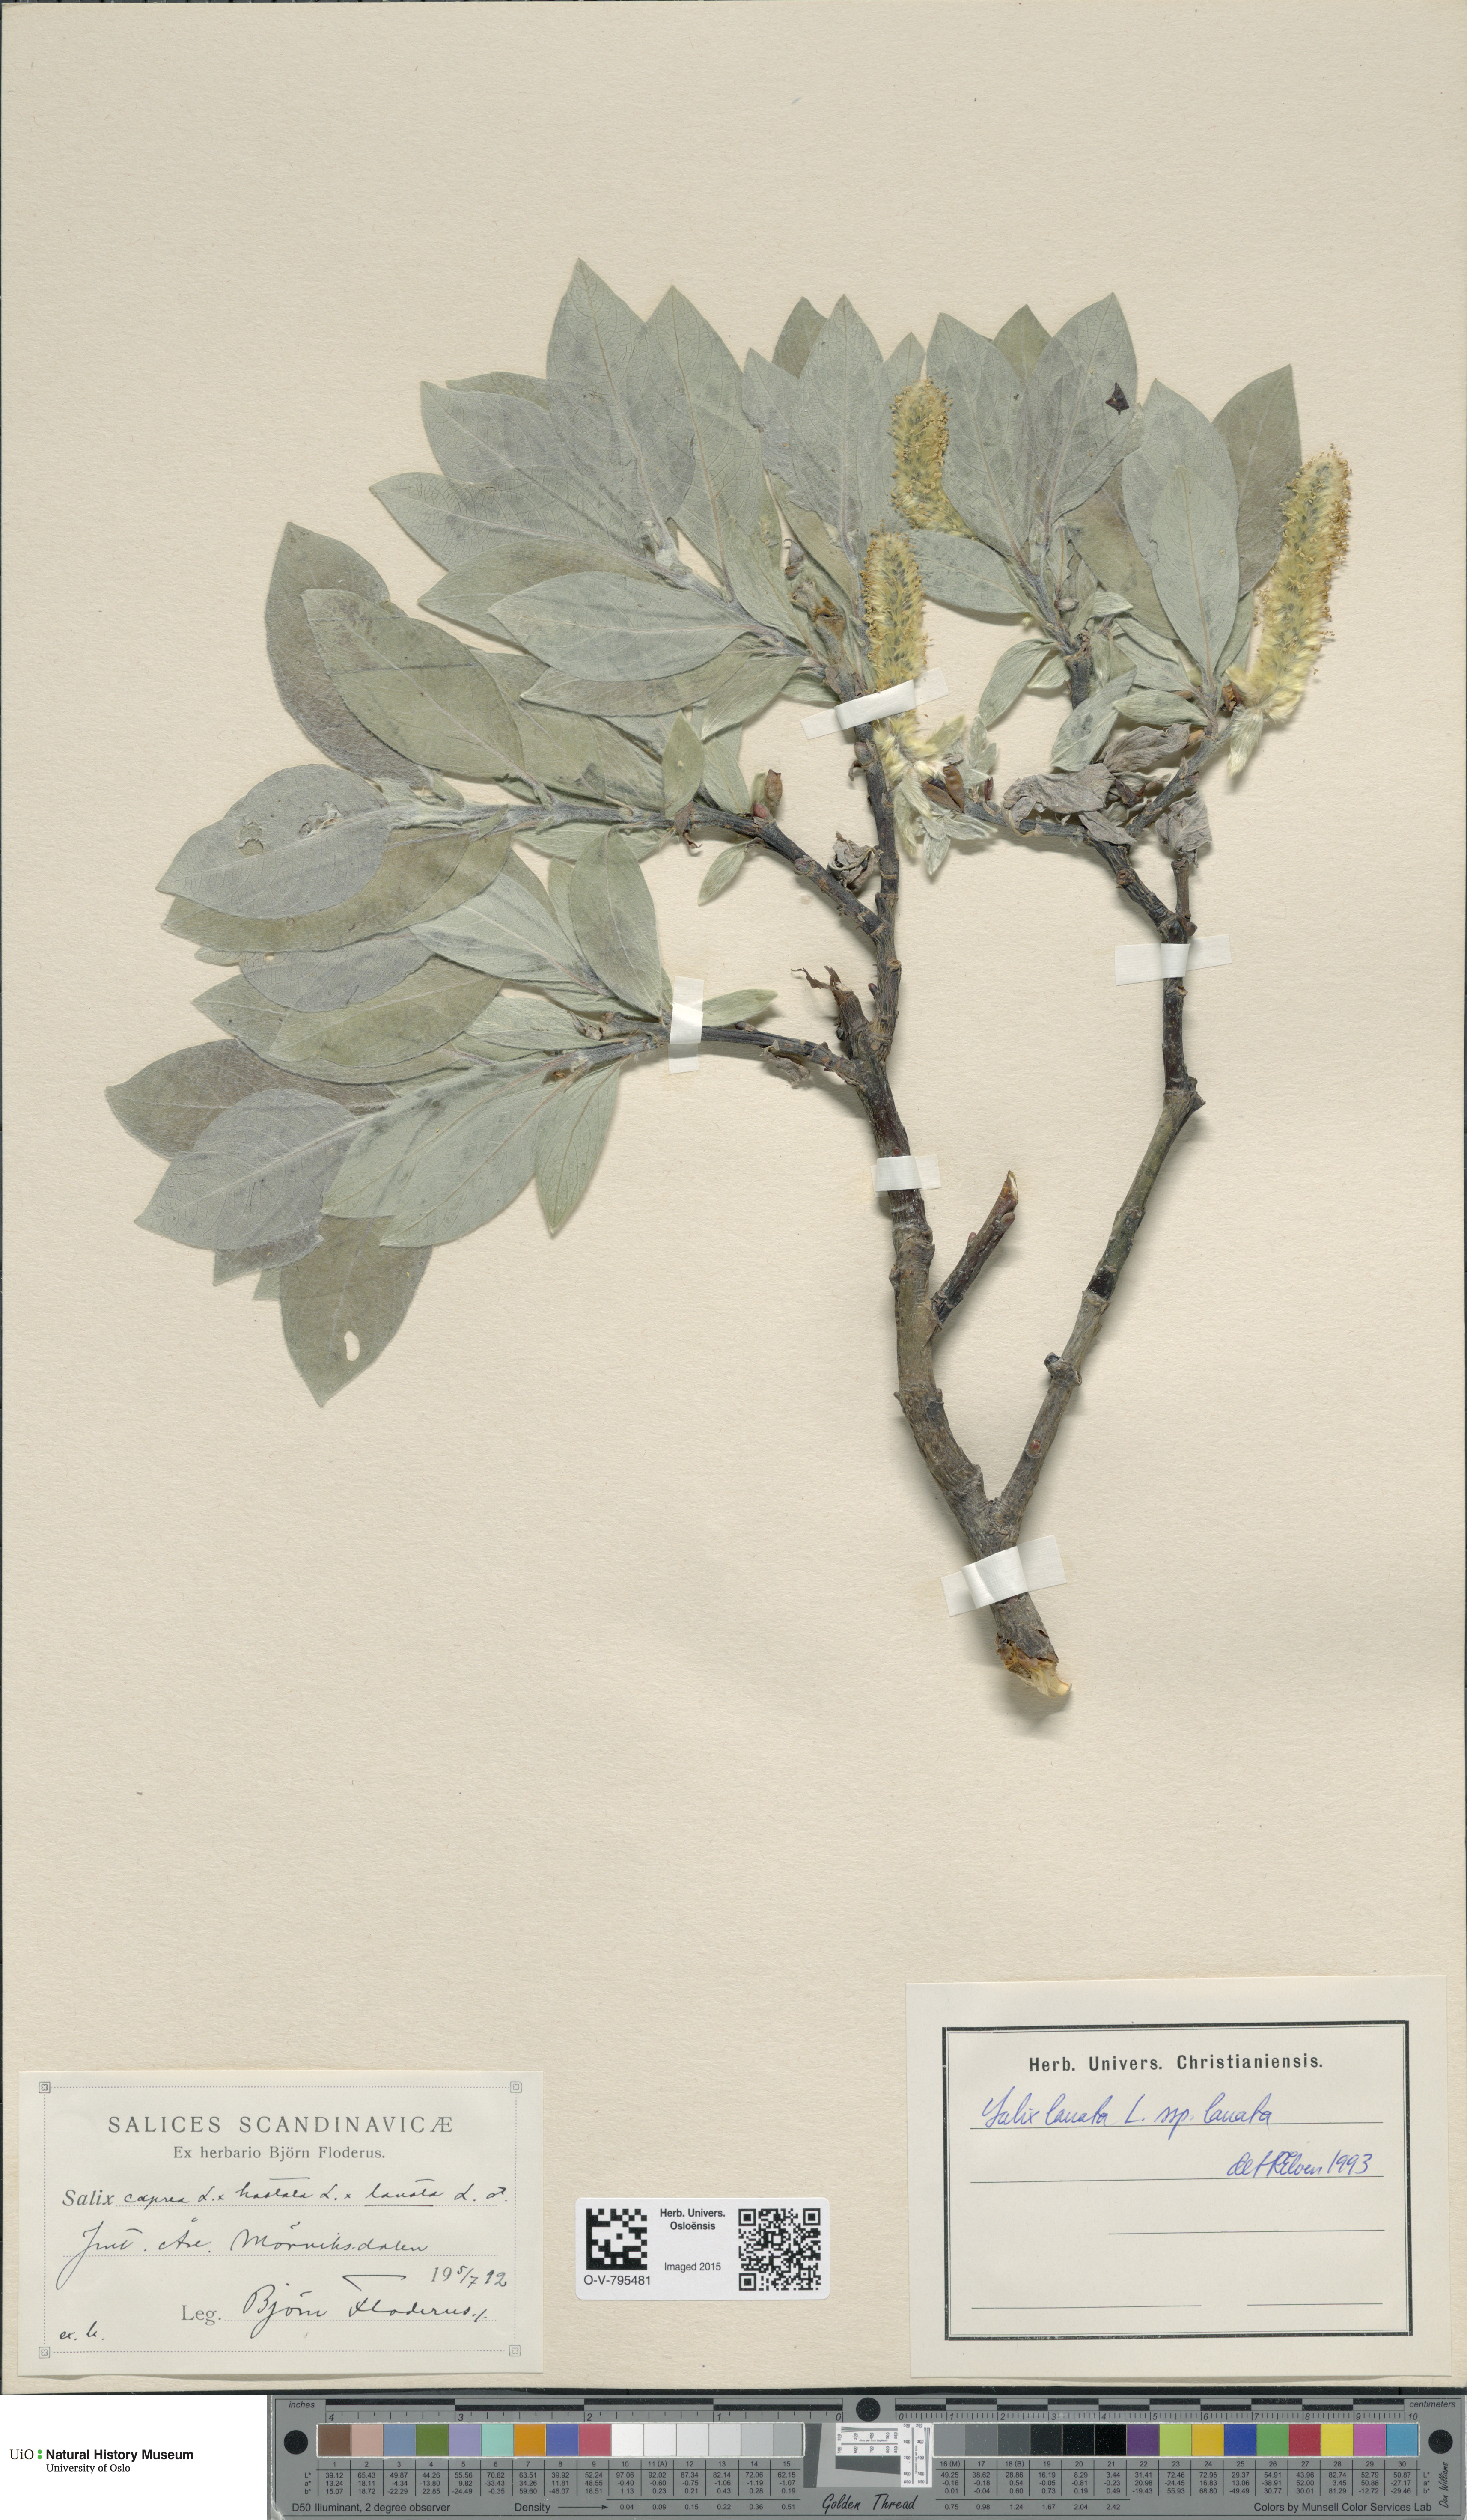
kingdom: Plantae
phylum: Tracheophyta
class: Magnoliopsida
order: Malpighiales
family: Salicaceae
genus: Salix
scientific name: Salix lanata
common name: Woolly willow
